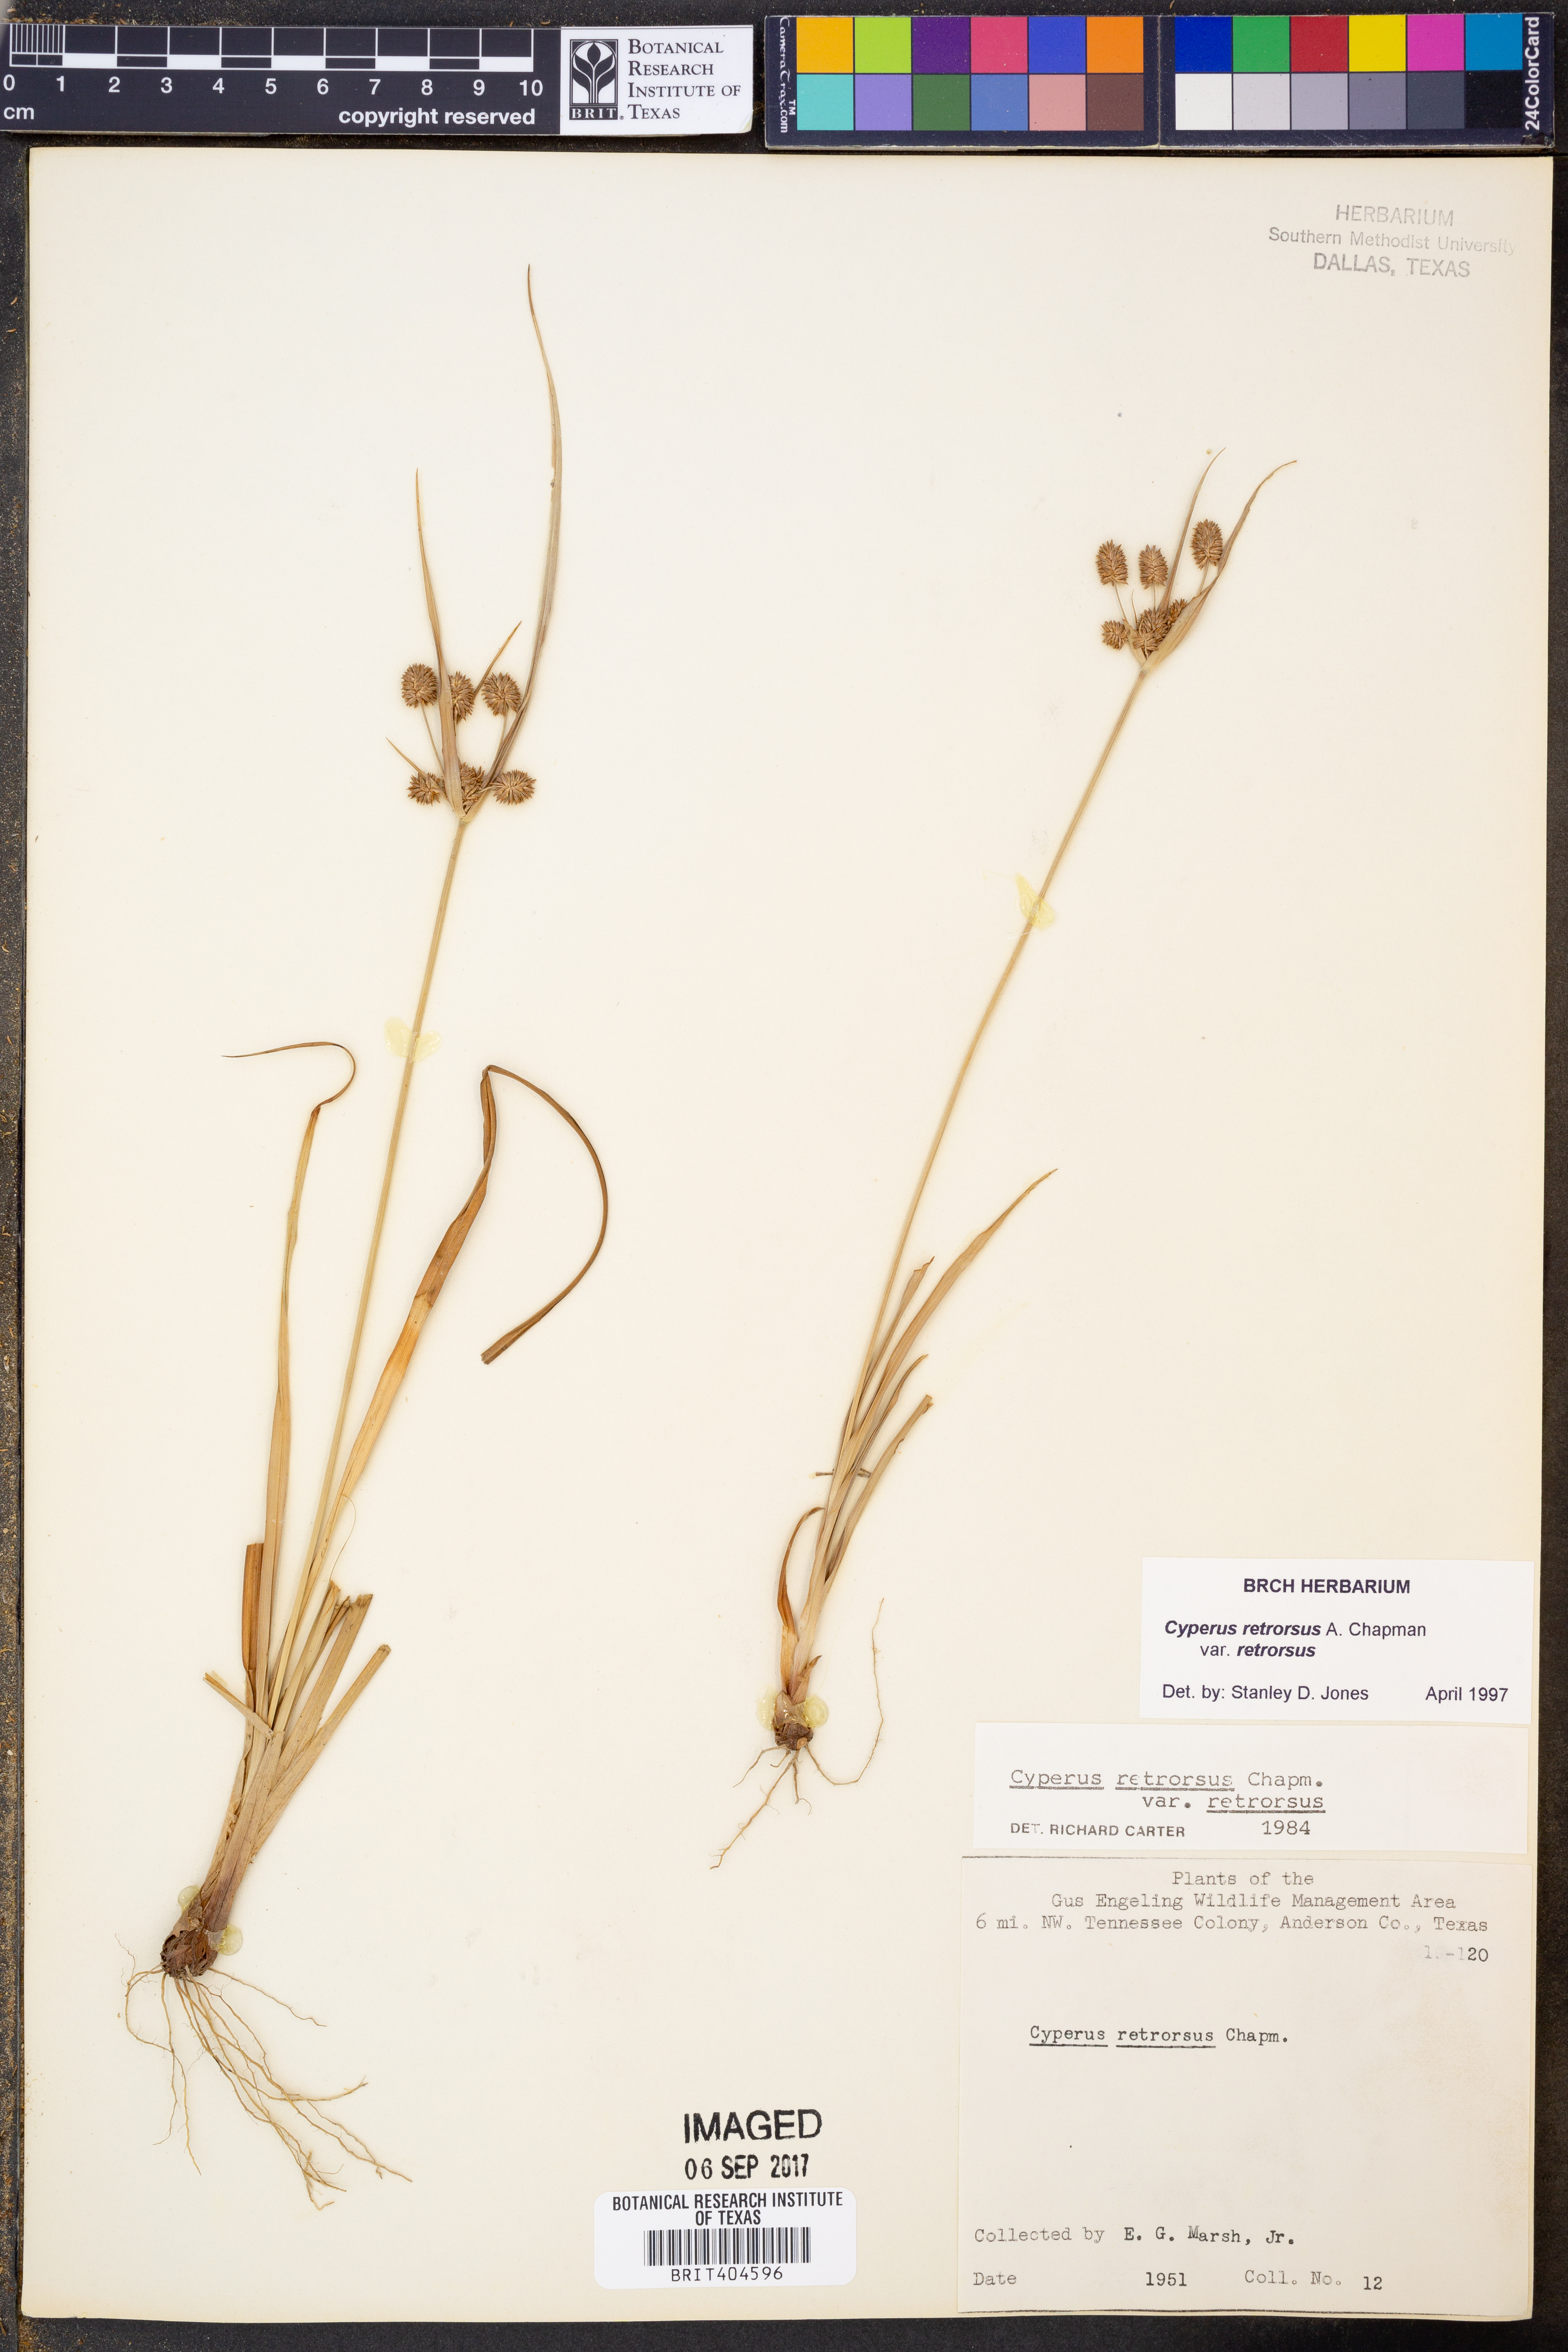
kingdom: Plantae
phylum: Tracheophyta
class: Liliopsida
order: Poales
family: Cyperaceae
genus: Cyperus
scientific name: Cyperus retrorsus
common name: Pinebarren flat sedge
